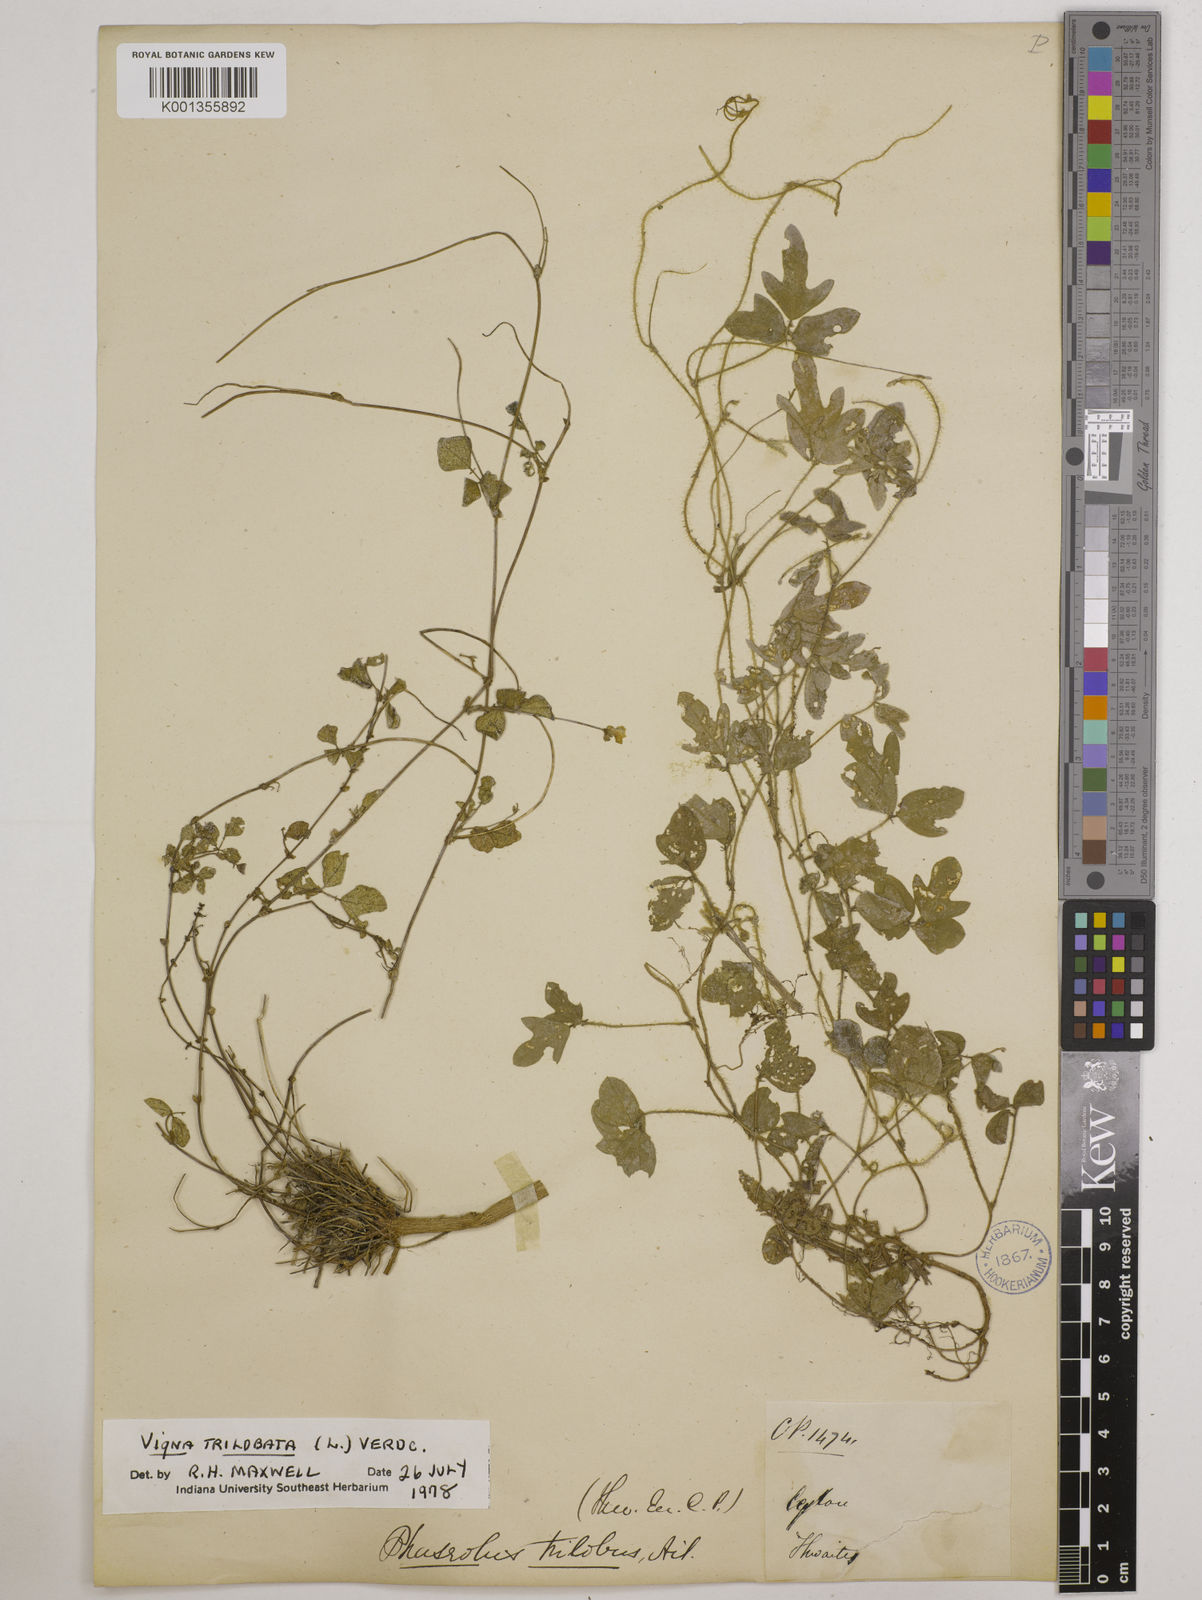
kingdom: Plantae
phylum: Tracheophyta
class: Magnoliopsida
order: Fabales
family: Fabaceae
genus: Vigna
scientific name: Vigna trilobata
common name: Jungli-bean
